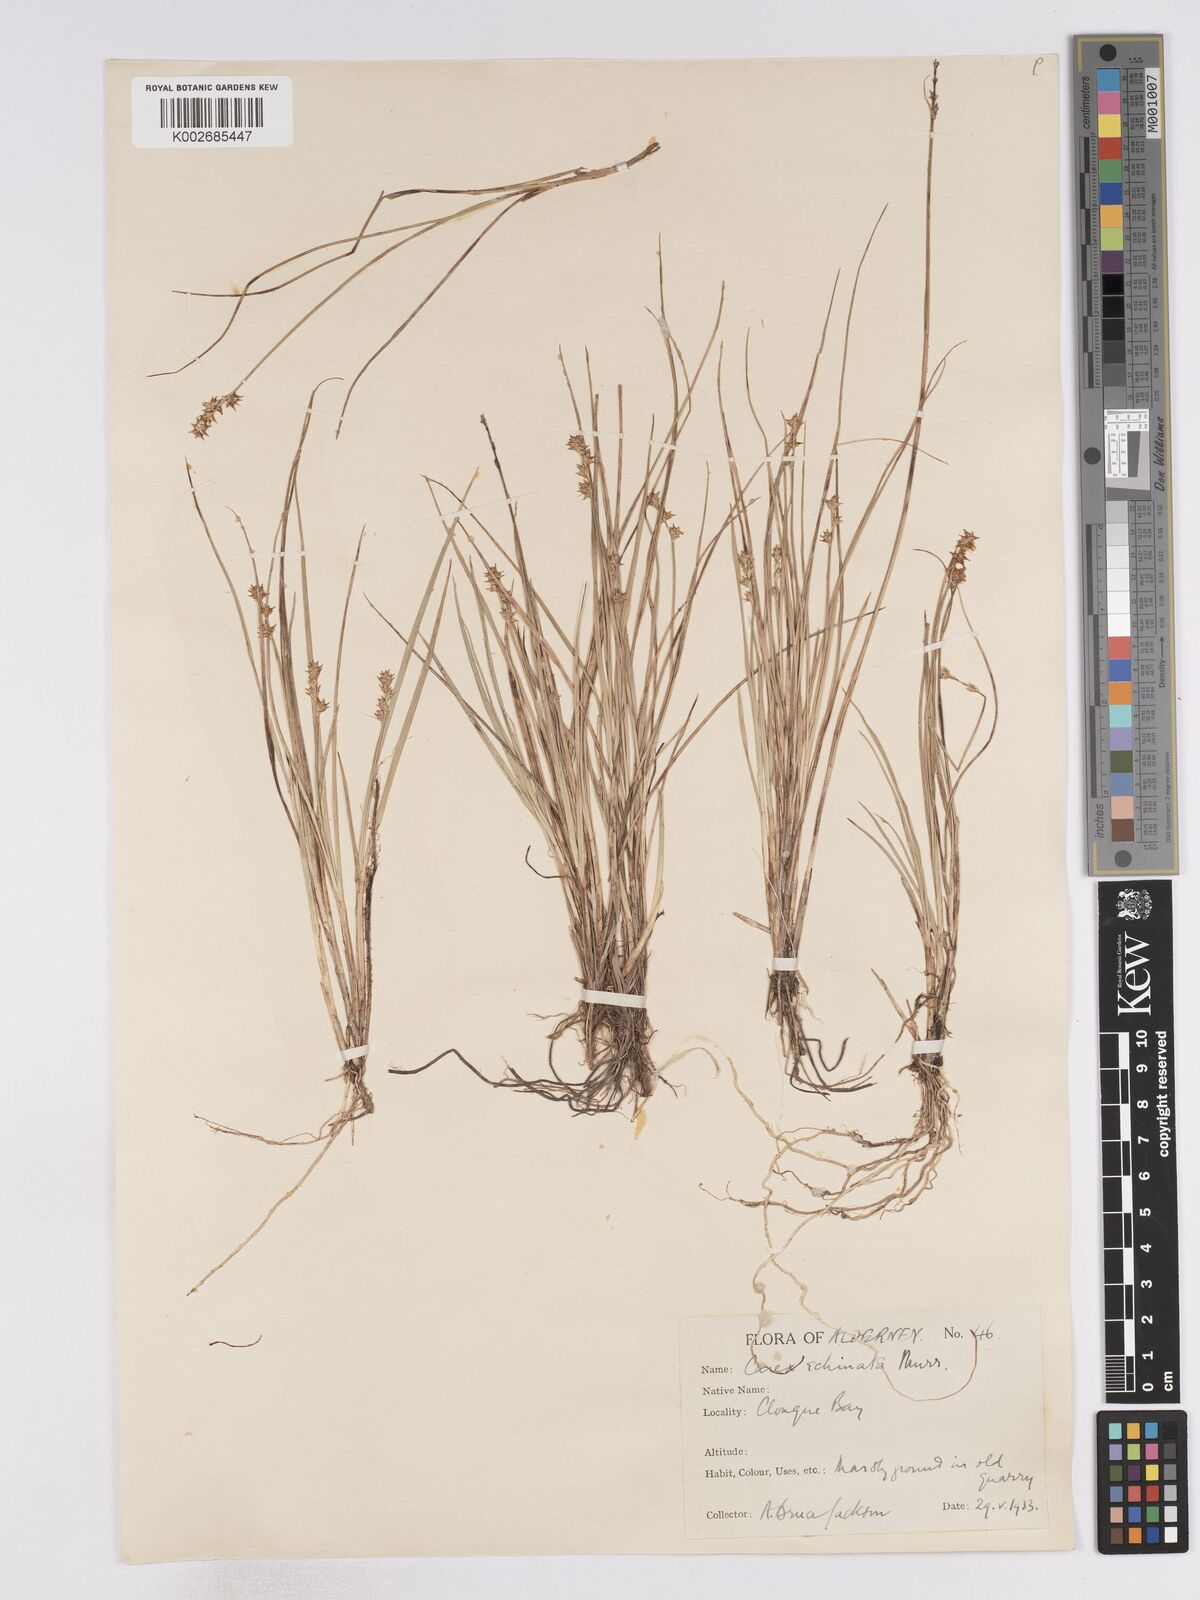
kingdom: Plantae
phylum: Tracheophyta
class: Liliopsida
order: Poales
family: Cyperaceae
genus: Carex
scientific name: Carex echinata
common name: Star sedge
